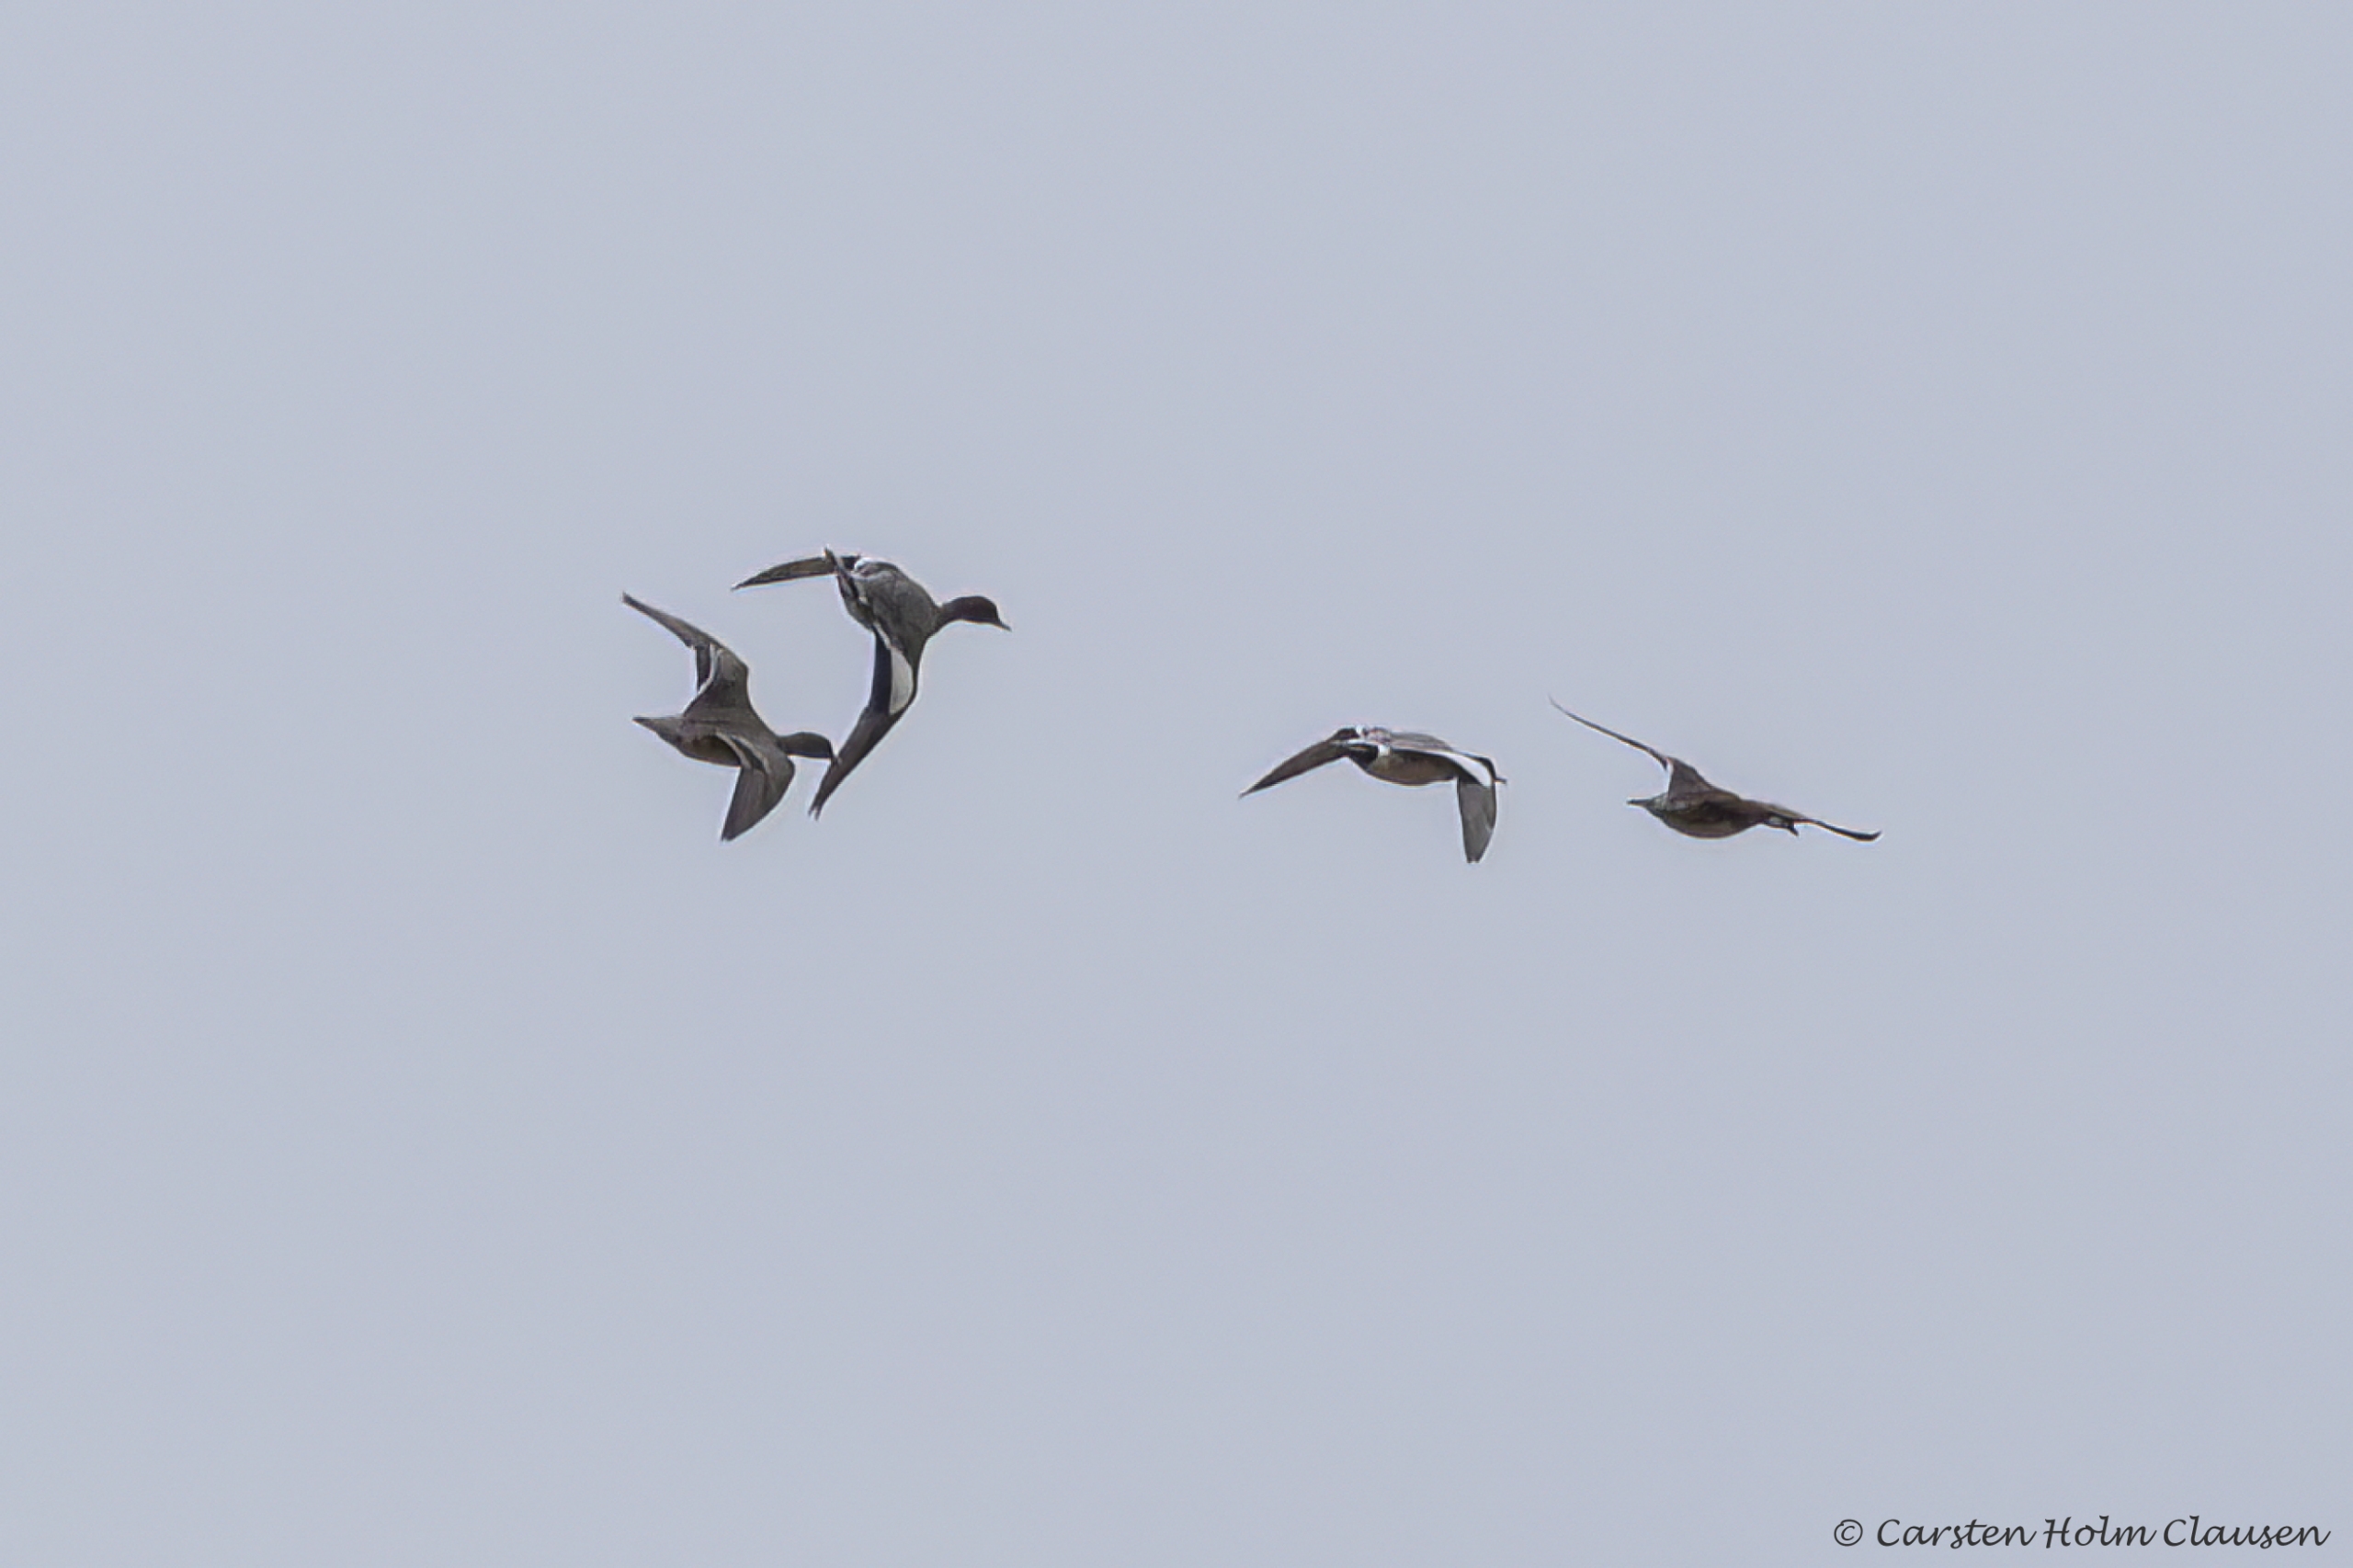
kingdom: Animalia
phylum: Chordata
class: Aves
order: Anseriformes
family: Anatidae
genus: Mareca
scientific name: Mareca penelope
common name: Pibeand
